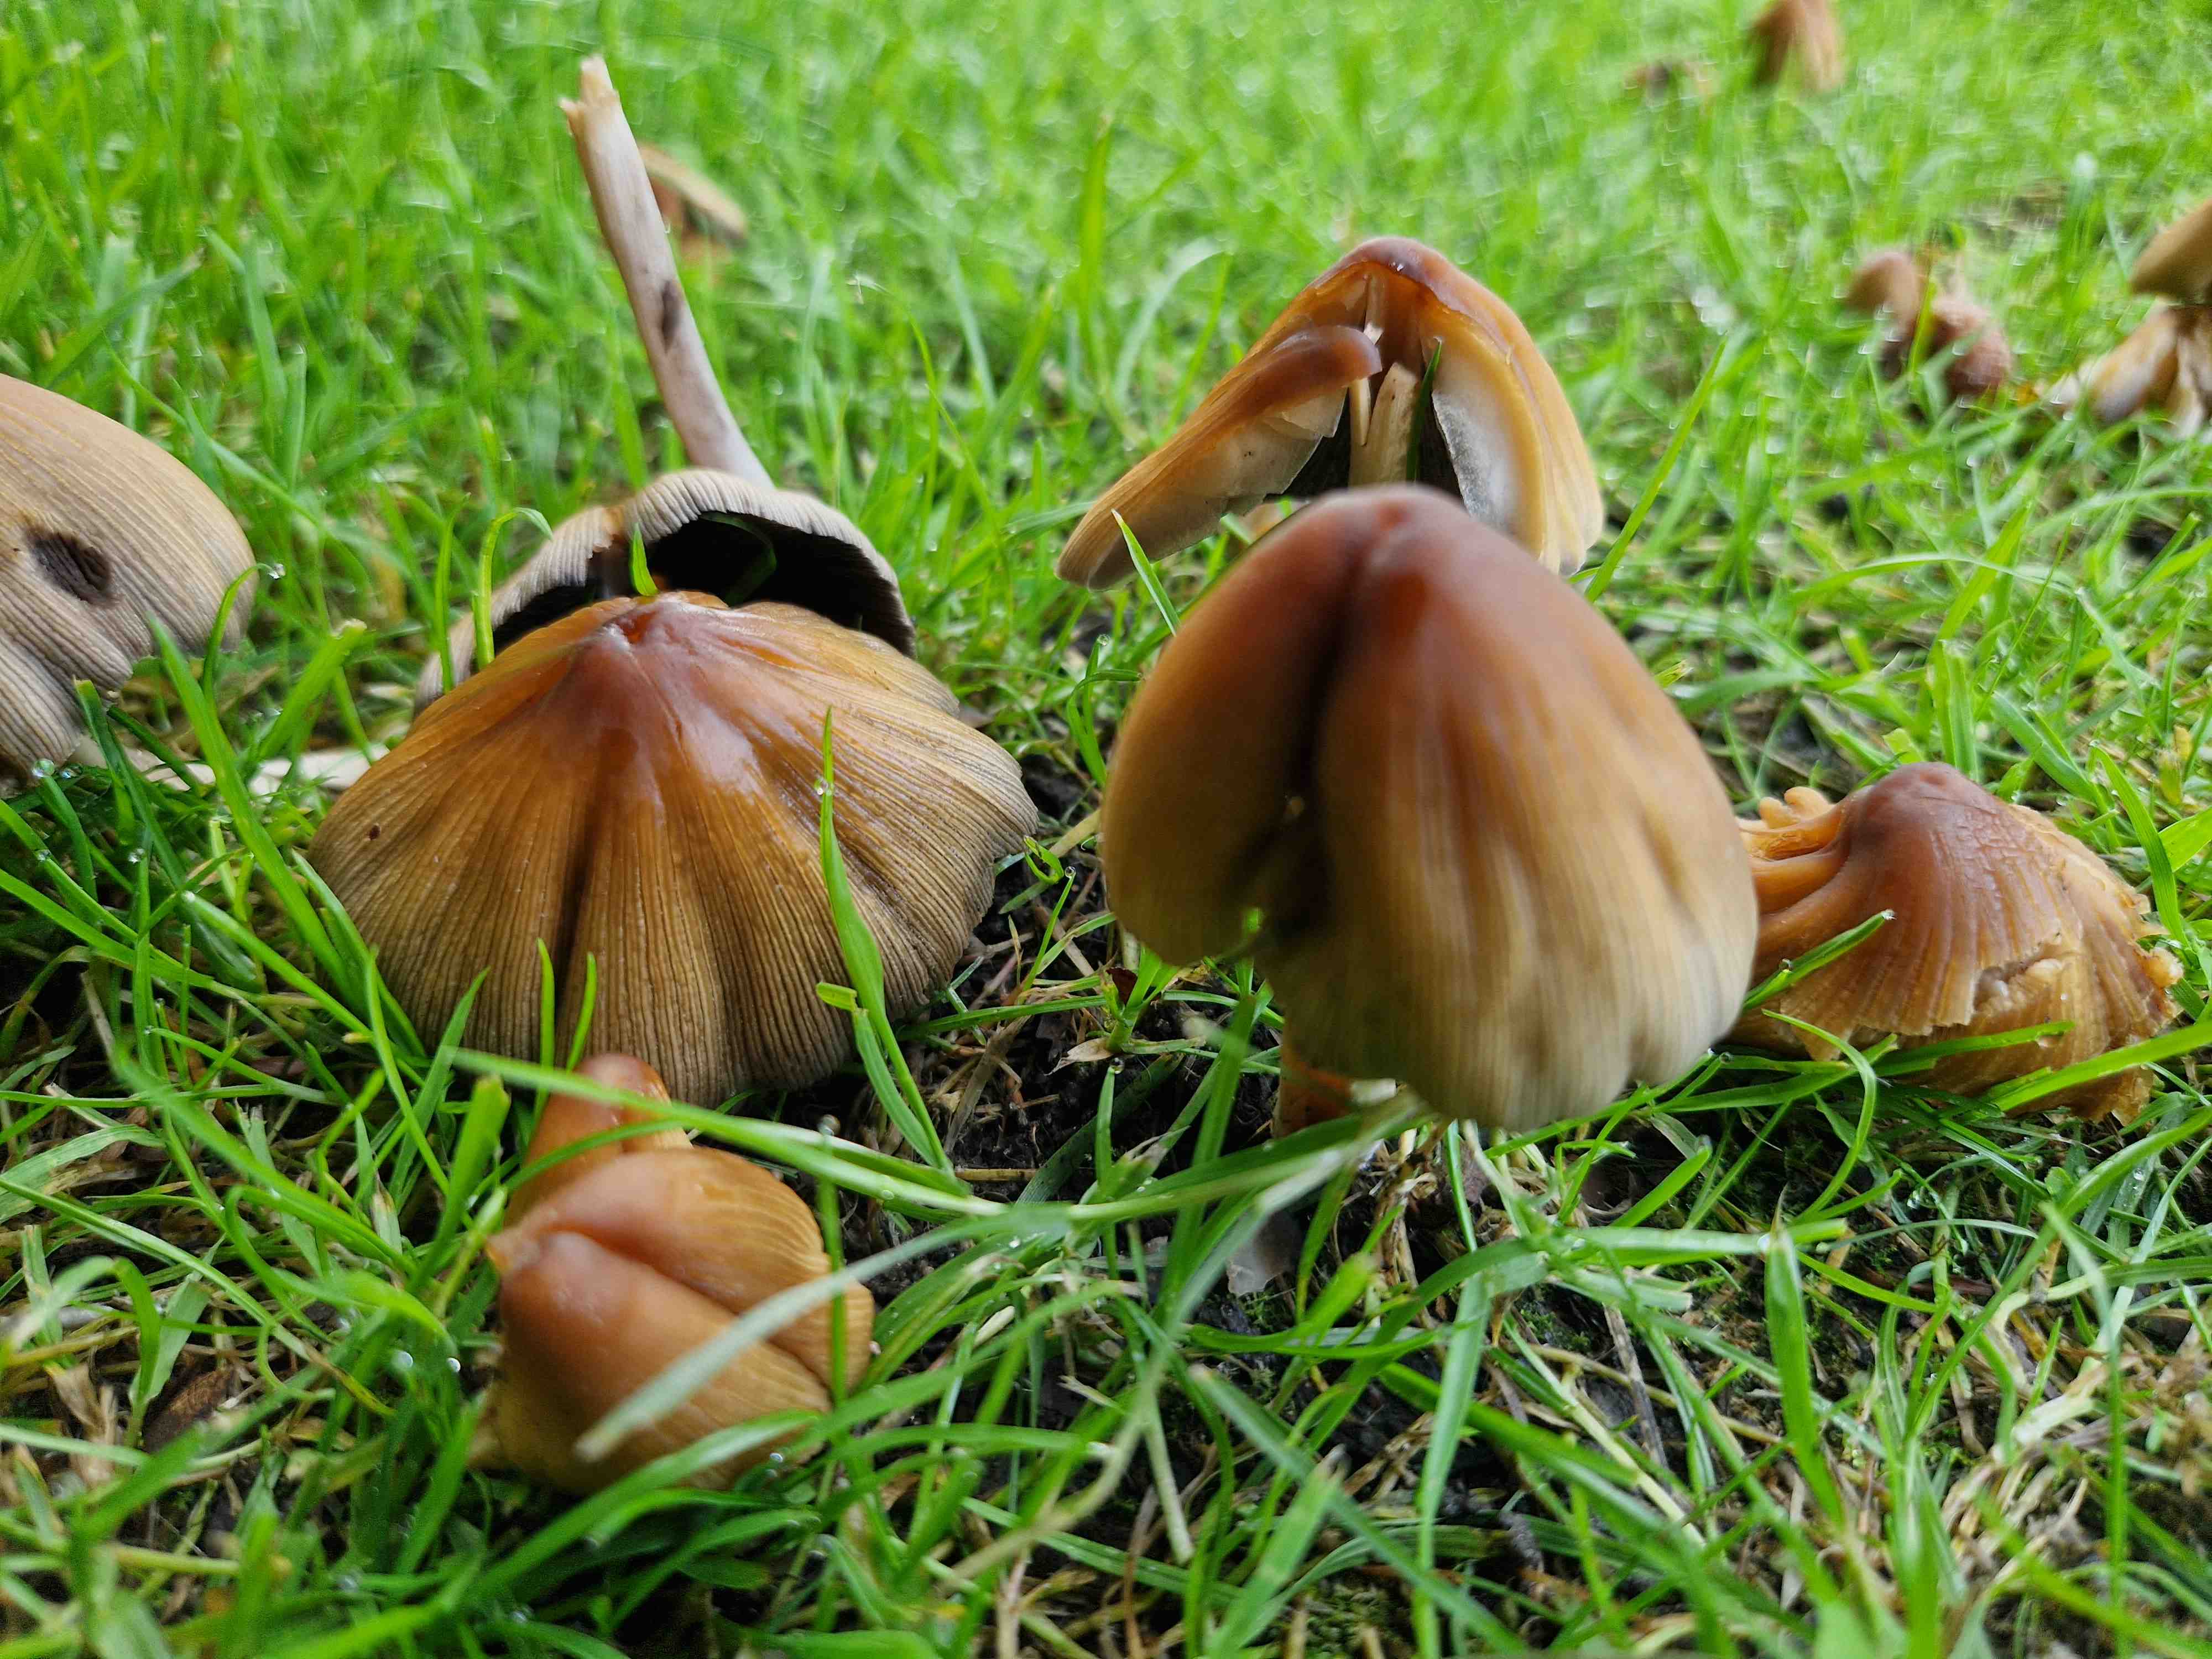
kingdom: Fungi
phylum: Basidiomycota
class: Agaricomycetes
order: Agaricales
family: Psathyrellaceae
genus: Coprinellus
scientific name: Coprinellus
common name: blækhat
